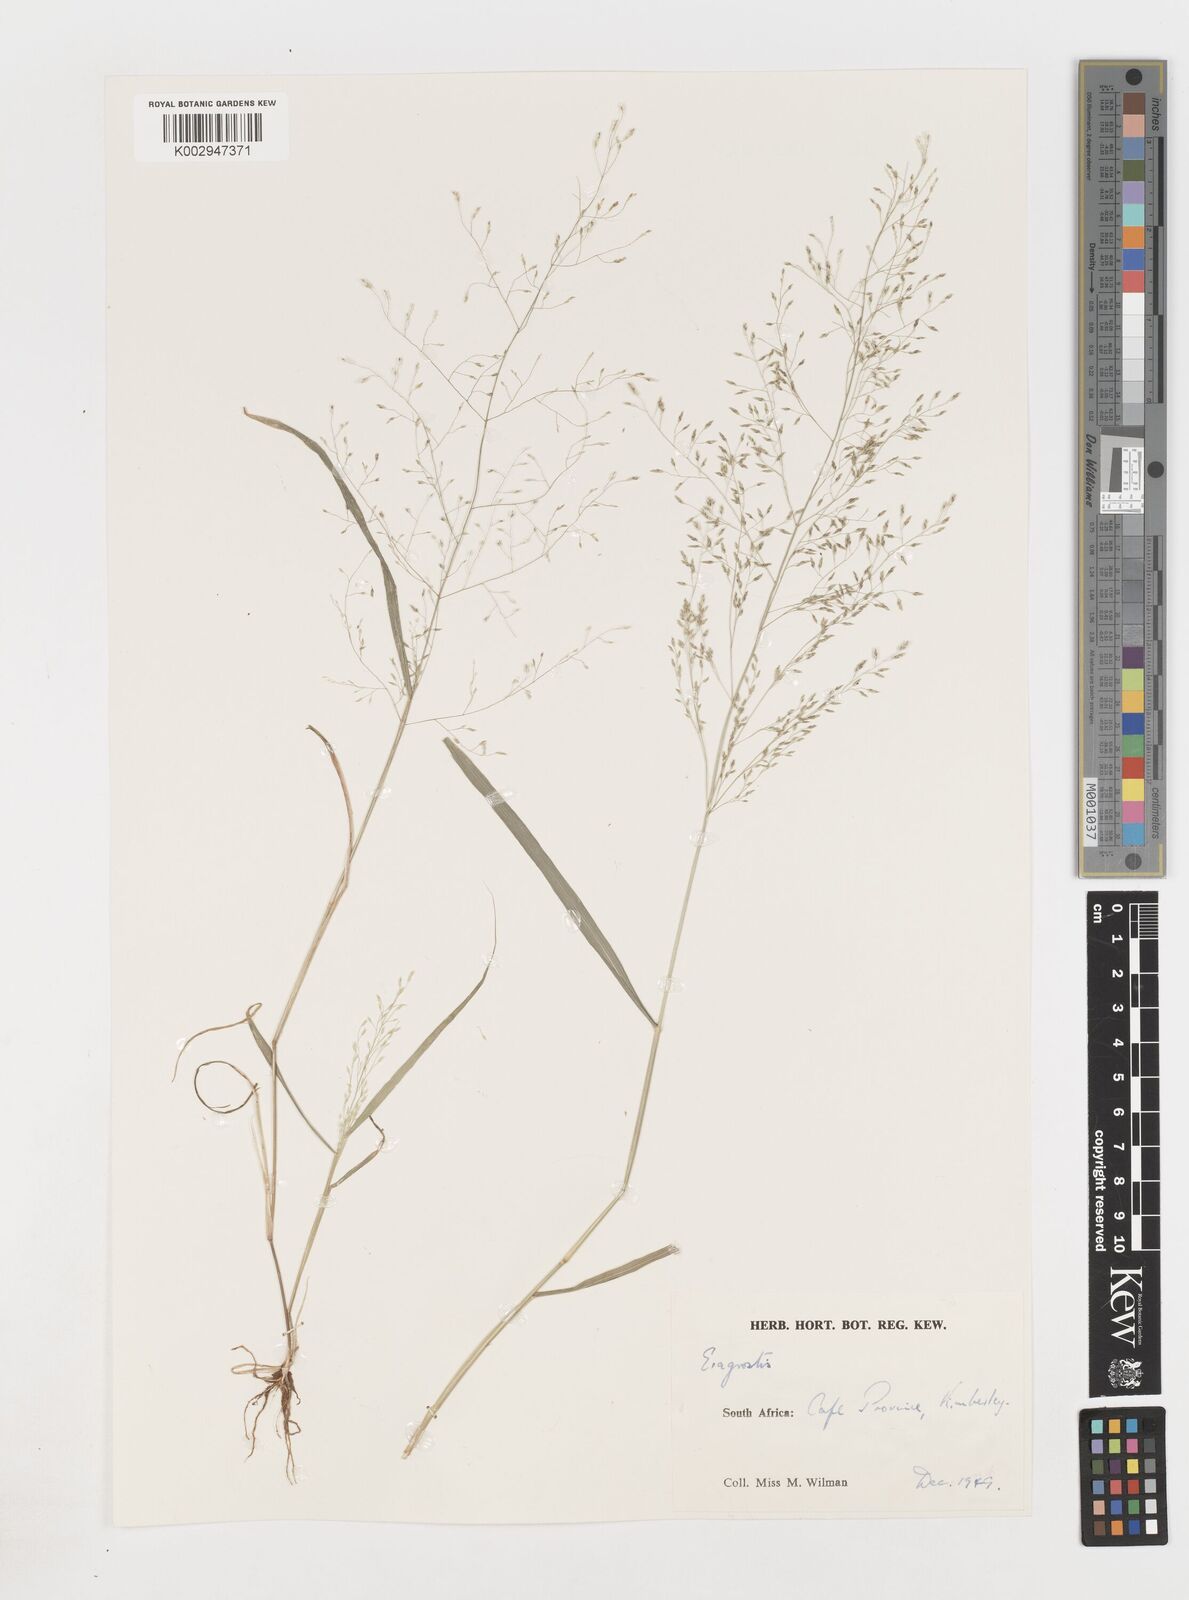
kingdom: Plantae
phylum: Tracheophyta
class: Liliopsida
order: Poales
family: Poaceae
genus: Eragrostis
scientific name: Eragrostis
